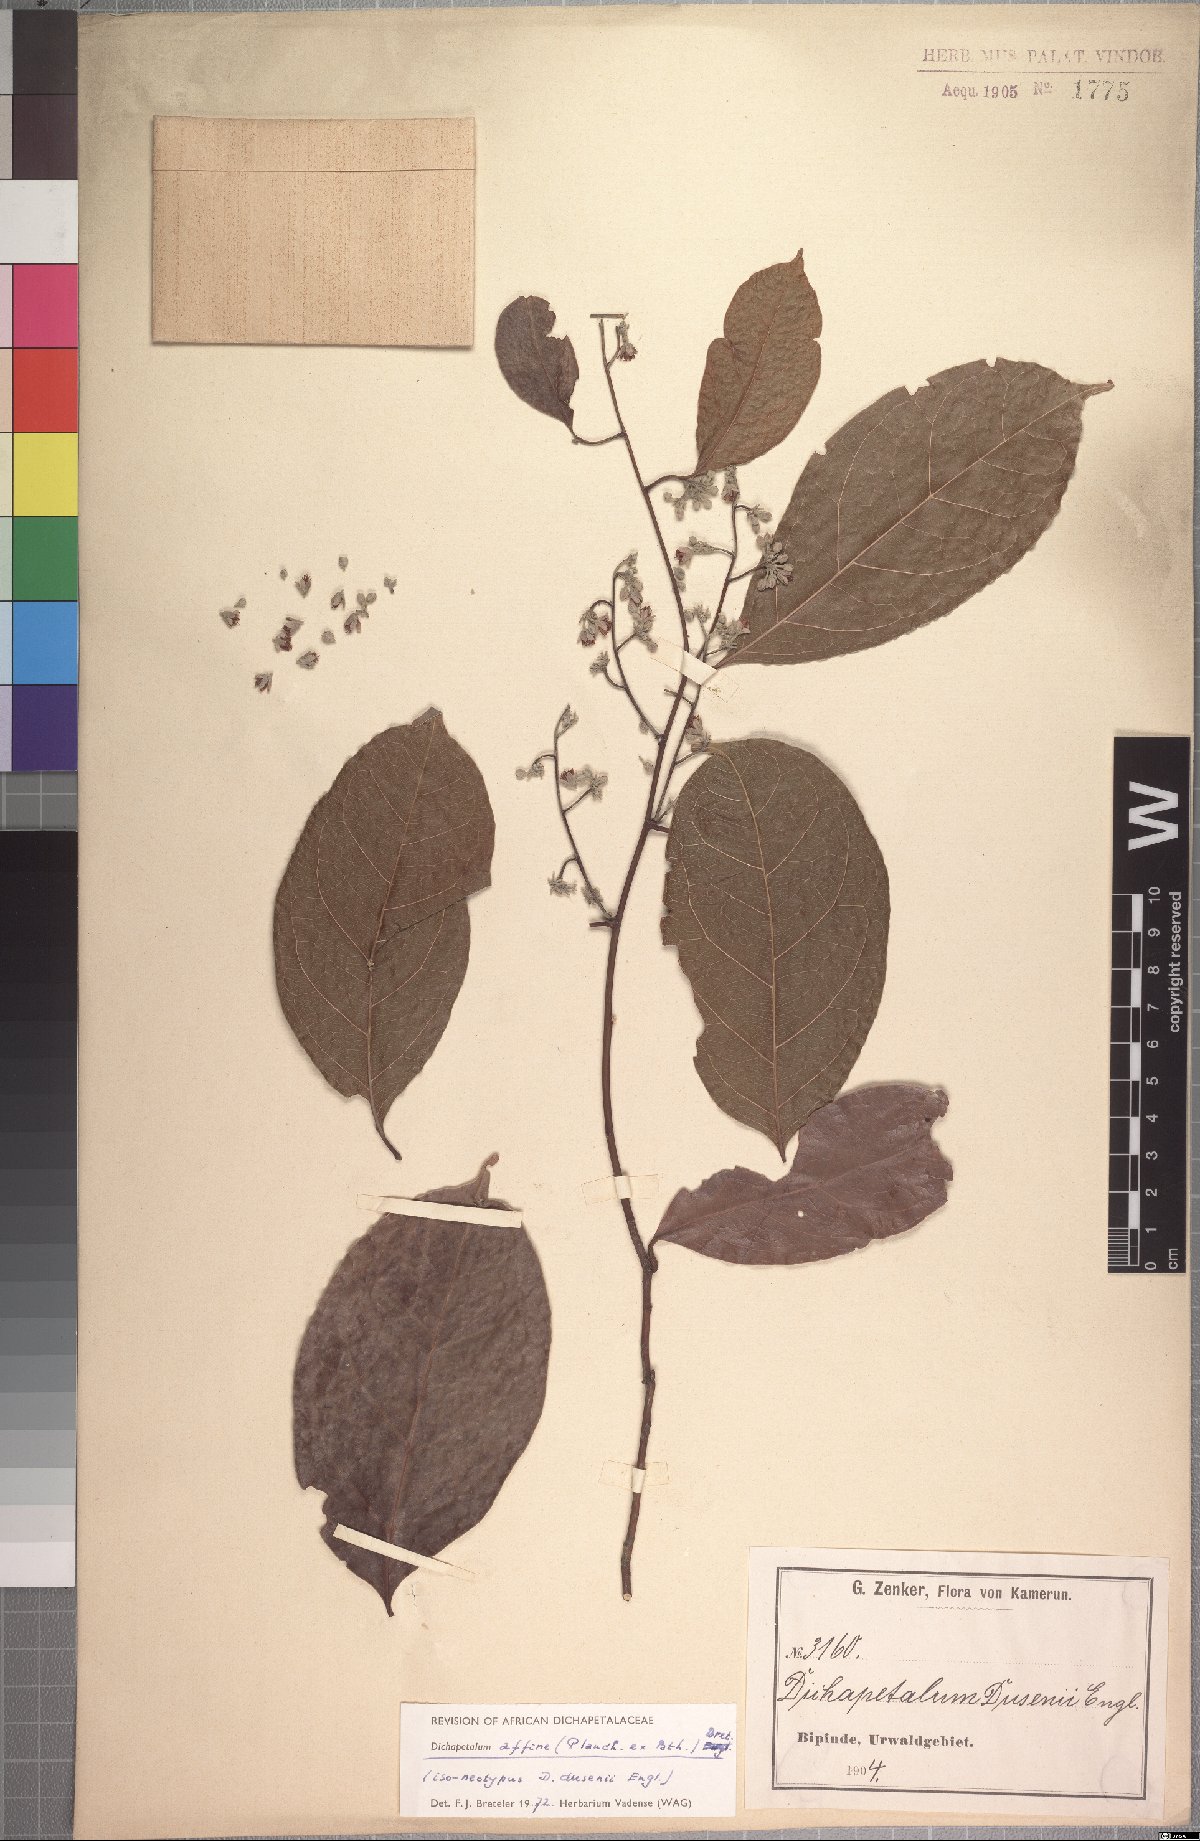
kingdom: Plantae
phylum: Tracheophyta
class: Magnoliopsida
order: Malpighiales
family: Dichapetalaceae
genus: Dichapetalum
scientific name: Dichapetalum affine
